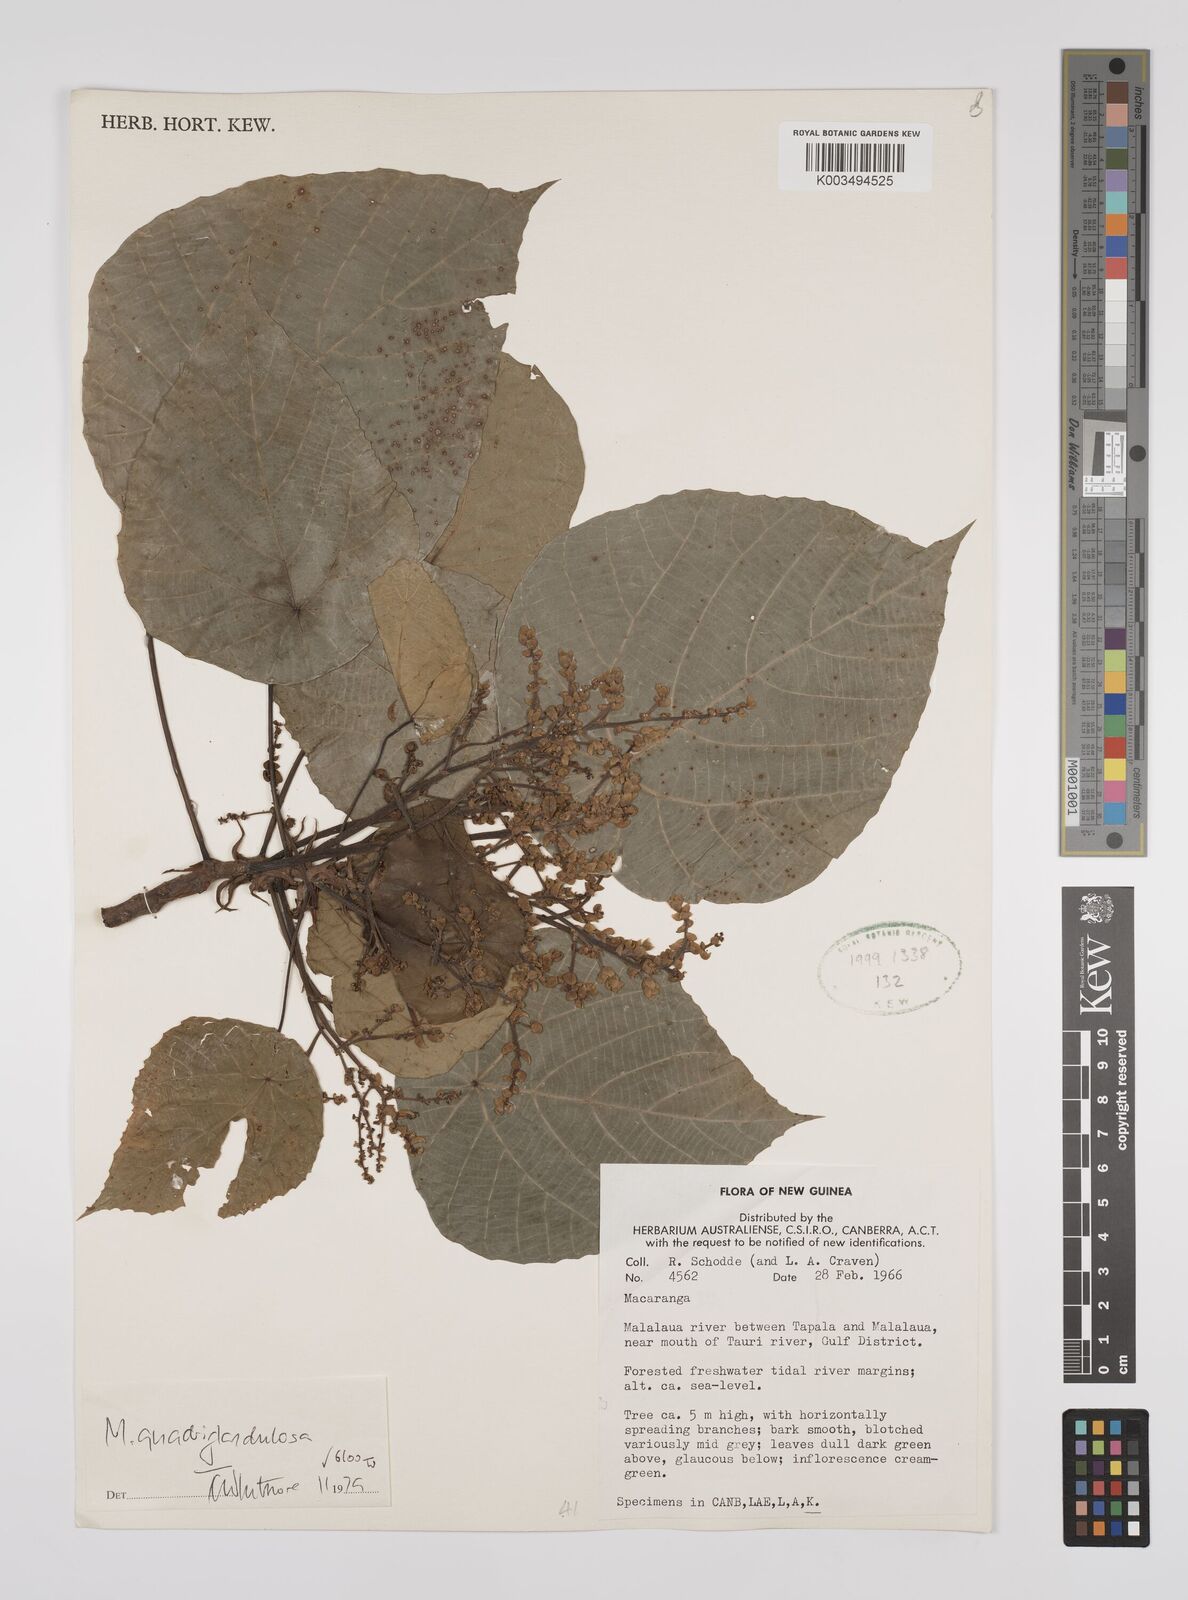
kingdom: Plantae
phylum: Tracheophyta
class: Magnoliopsida
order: Malpighiales
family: Euphorbiaceae
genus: Macaranga
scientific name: Macaranga quadriglandulosa
